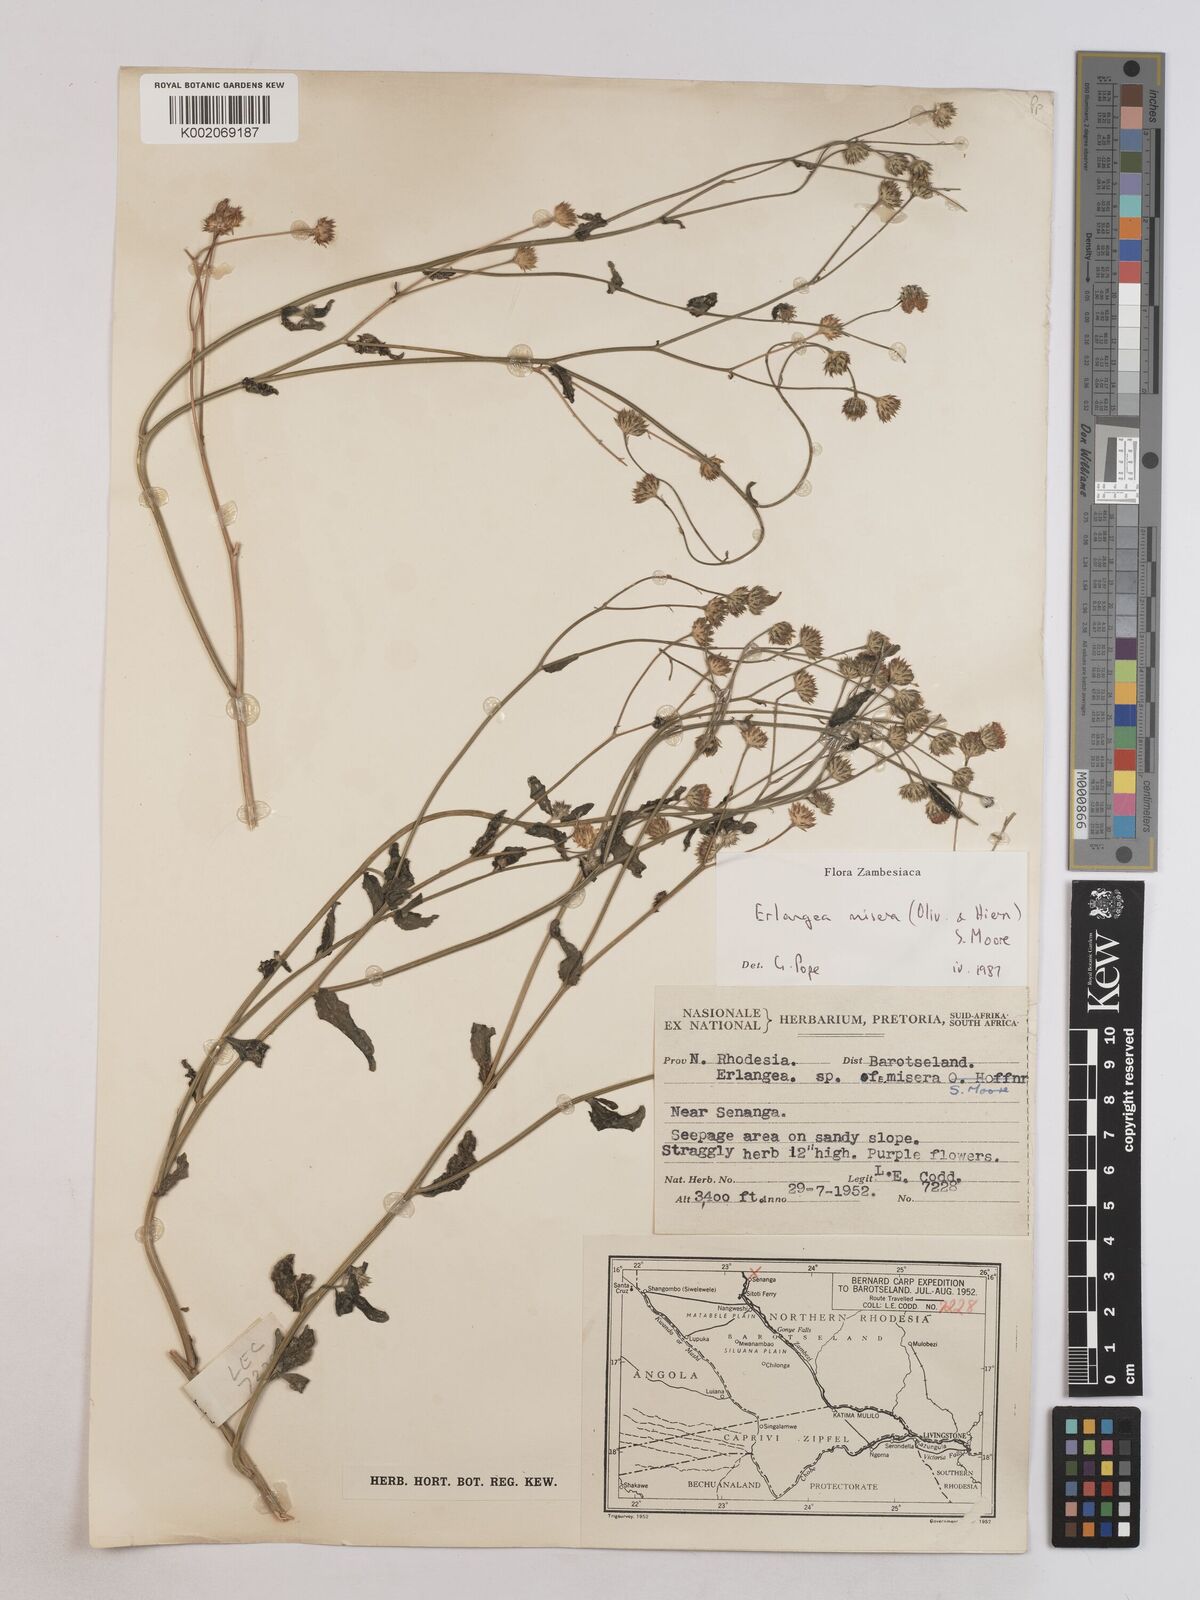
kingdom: Plantae
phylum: Tracheophyta
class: Magnoliopsida
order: Asterales
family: Asteraceae
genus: Erlangea
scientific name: Erlangea misera
